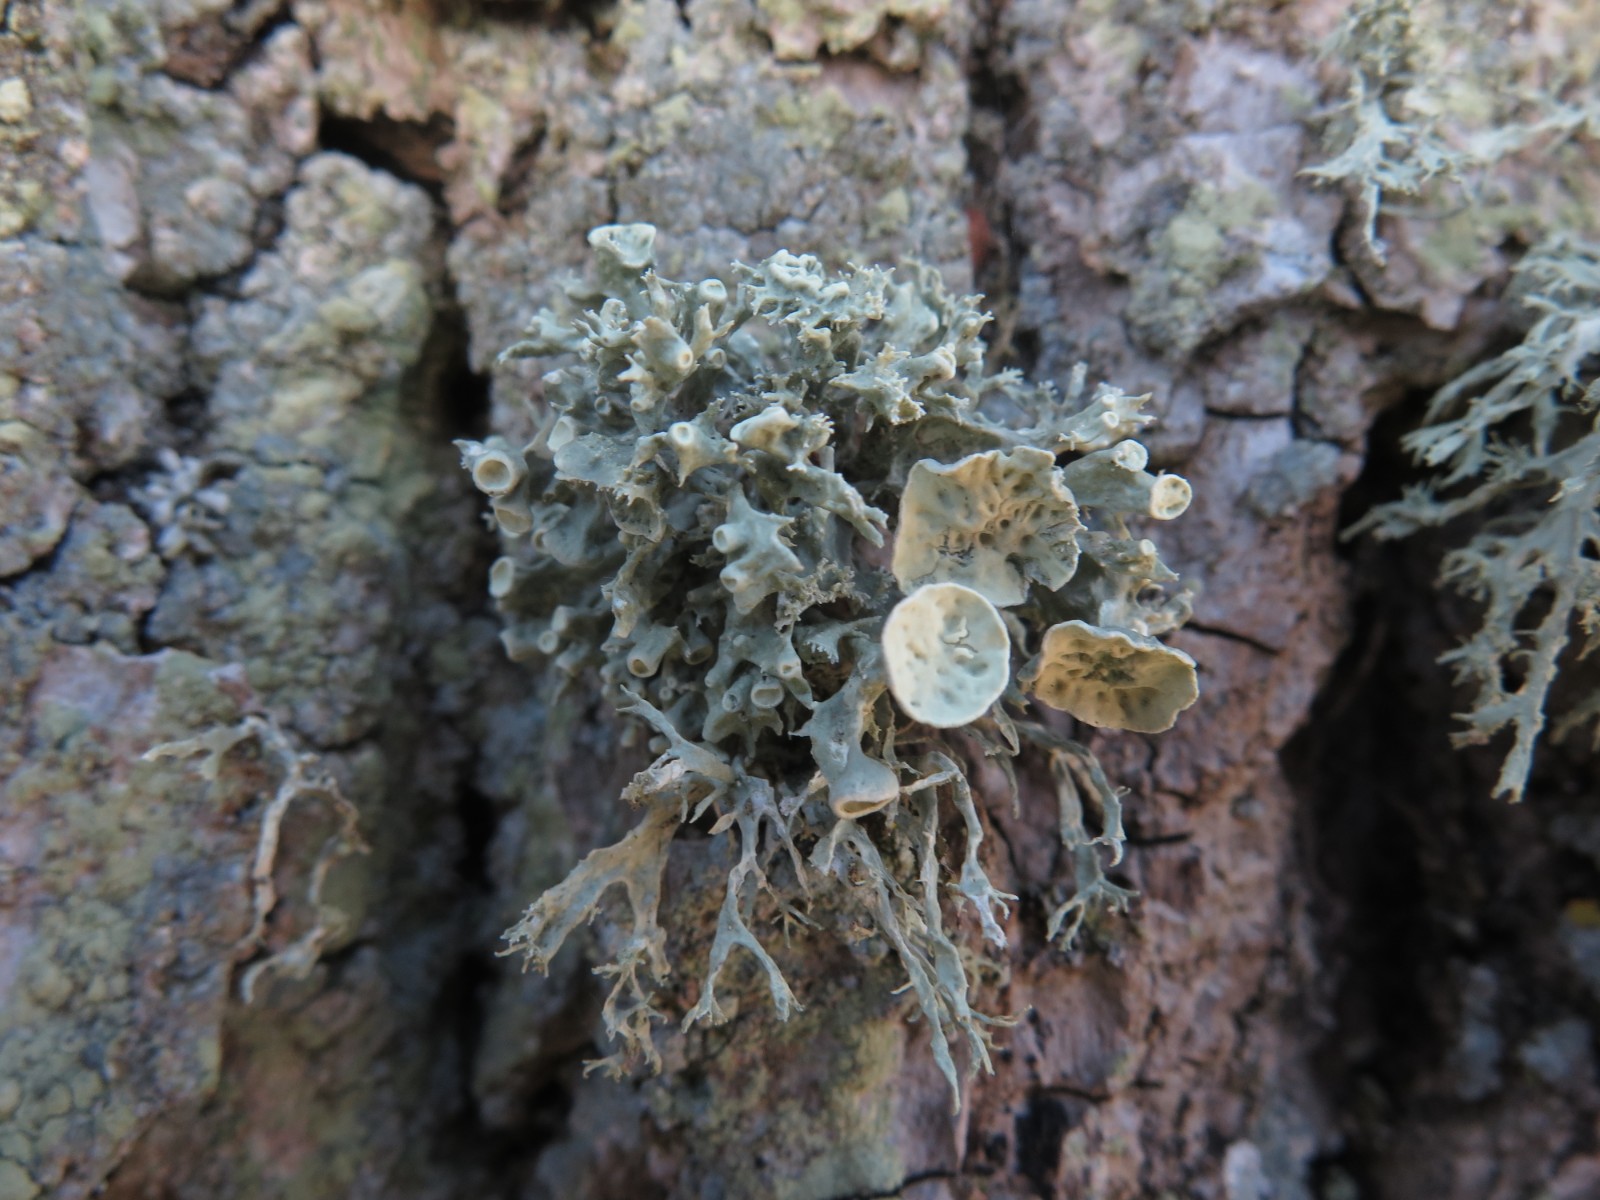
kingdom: Fungi
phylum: Ascomycota
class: Lecanoromycetes
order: Lecanorales
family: Ramalinaceae
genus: Ramalina
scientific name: Ramalina fastigiata
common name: tue-grenlav
